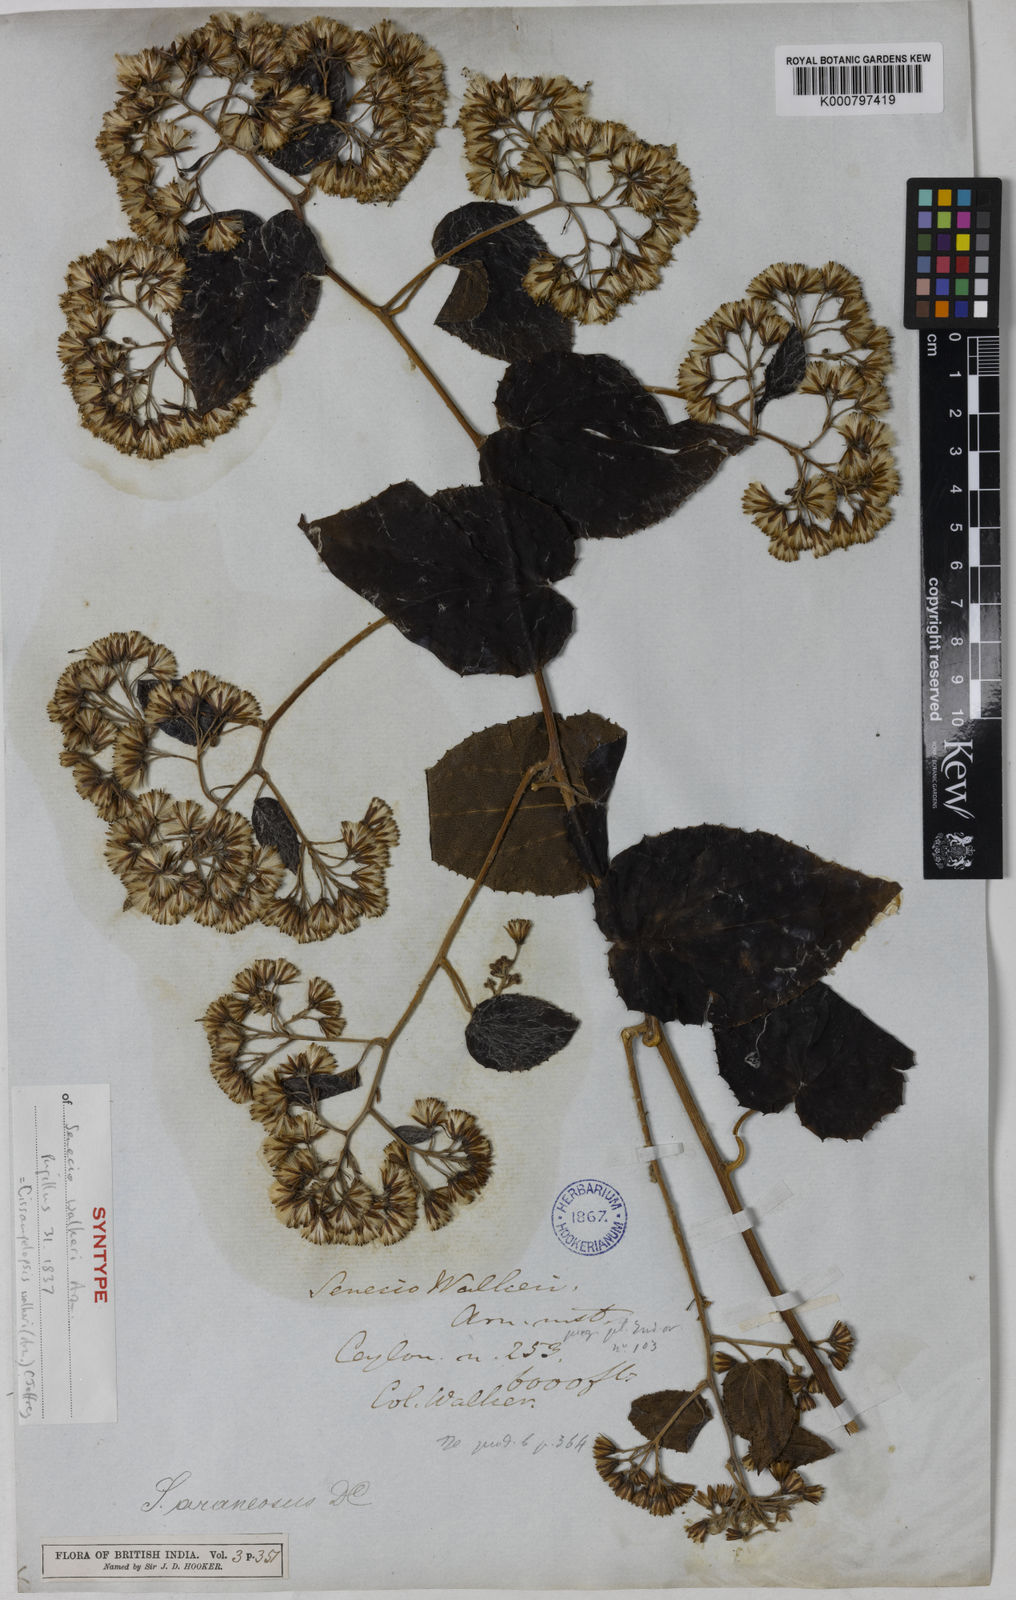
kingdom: Plantae
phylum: Tracheophyta
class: Magnoliopsida
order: Asterales
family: Asteraceae
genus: Cissampelopsis
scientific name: Cissampelopsis walkeri
